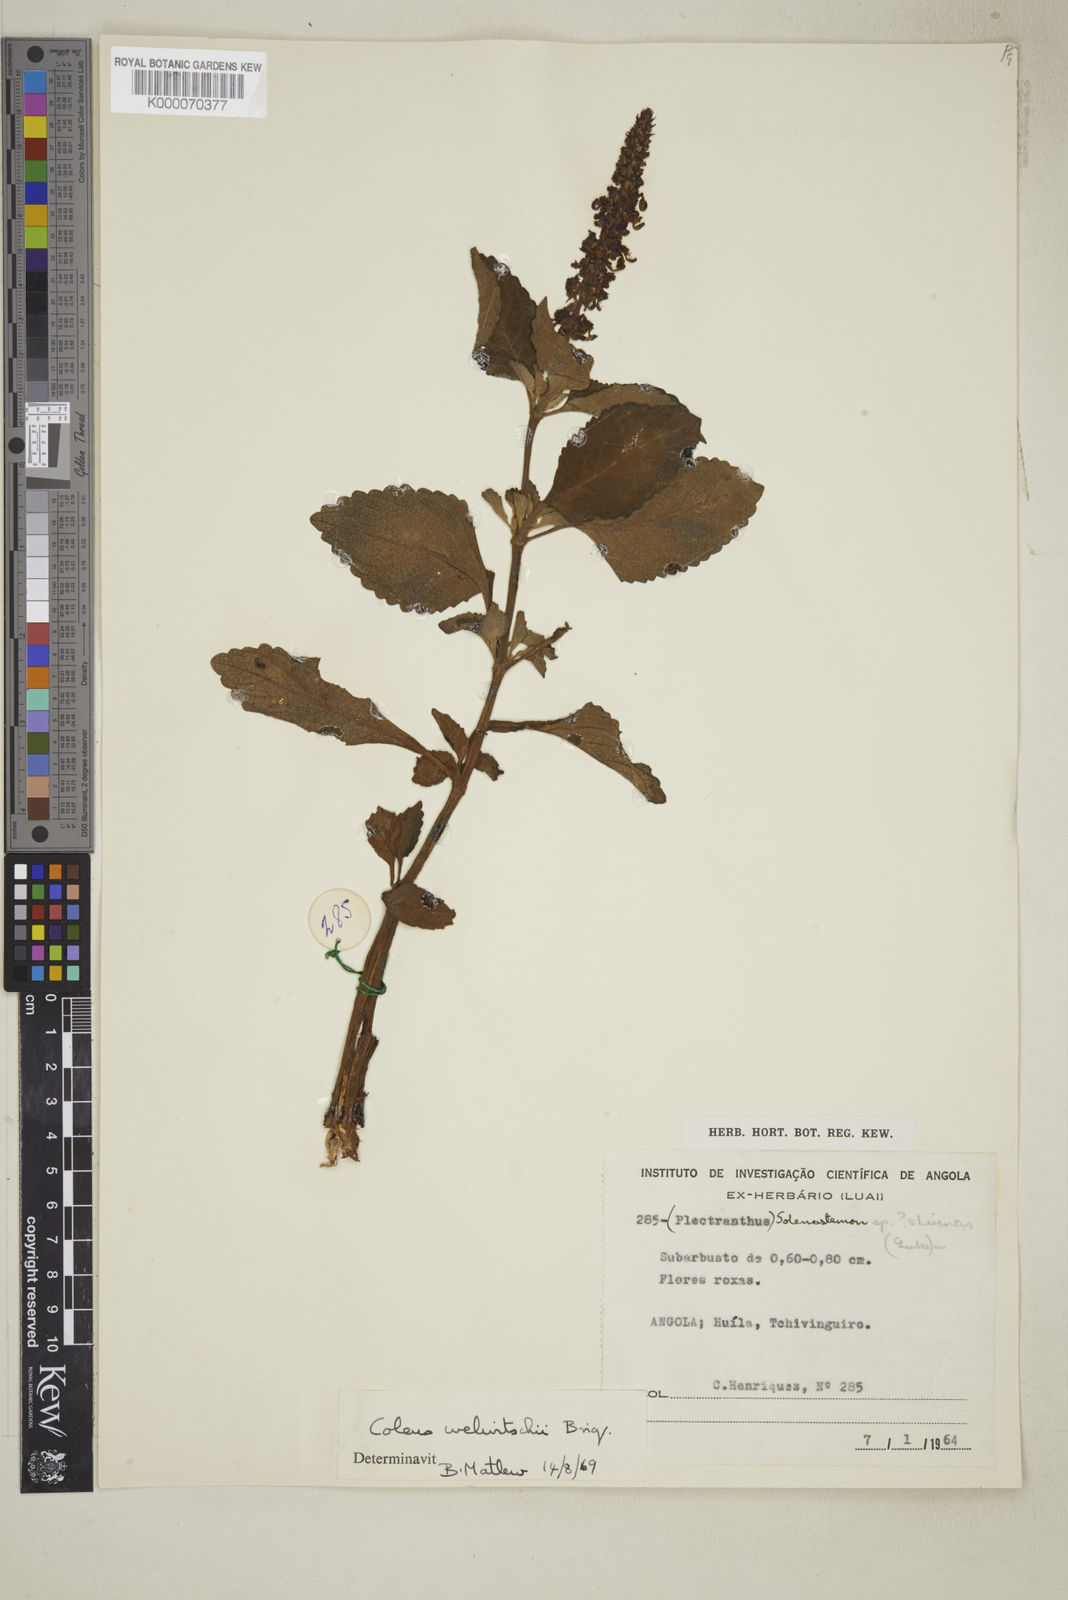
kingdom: Plantae
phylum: Tracheophyta
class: Magnoliopsida
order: Lamiales
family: Lamiaceae
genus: Coleus
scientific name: Coleus welwitschii
